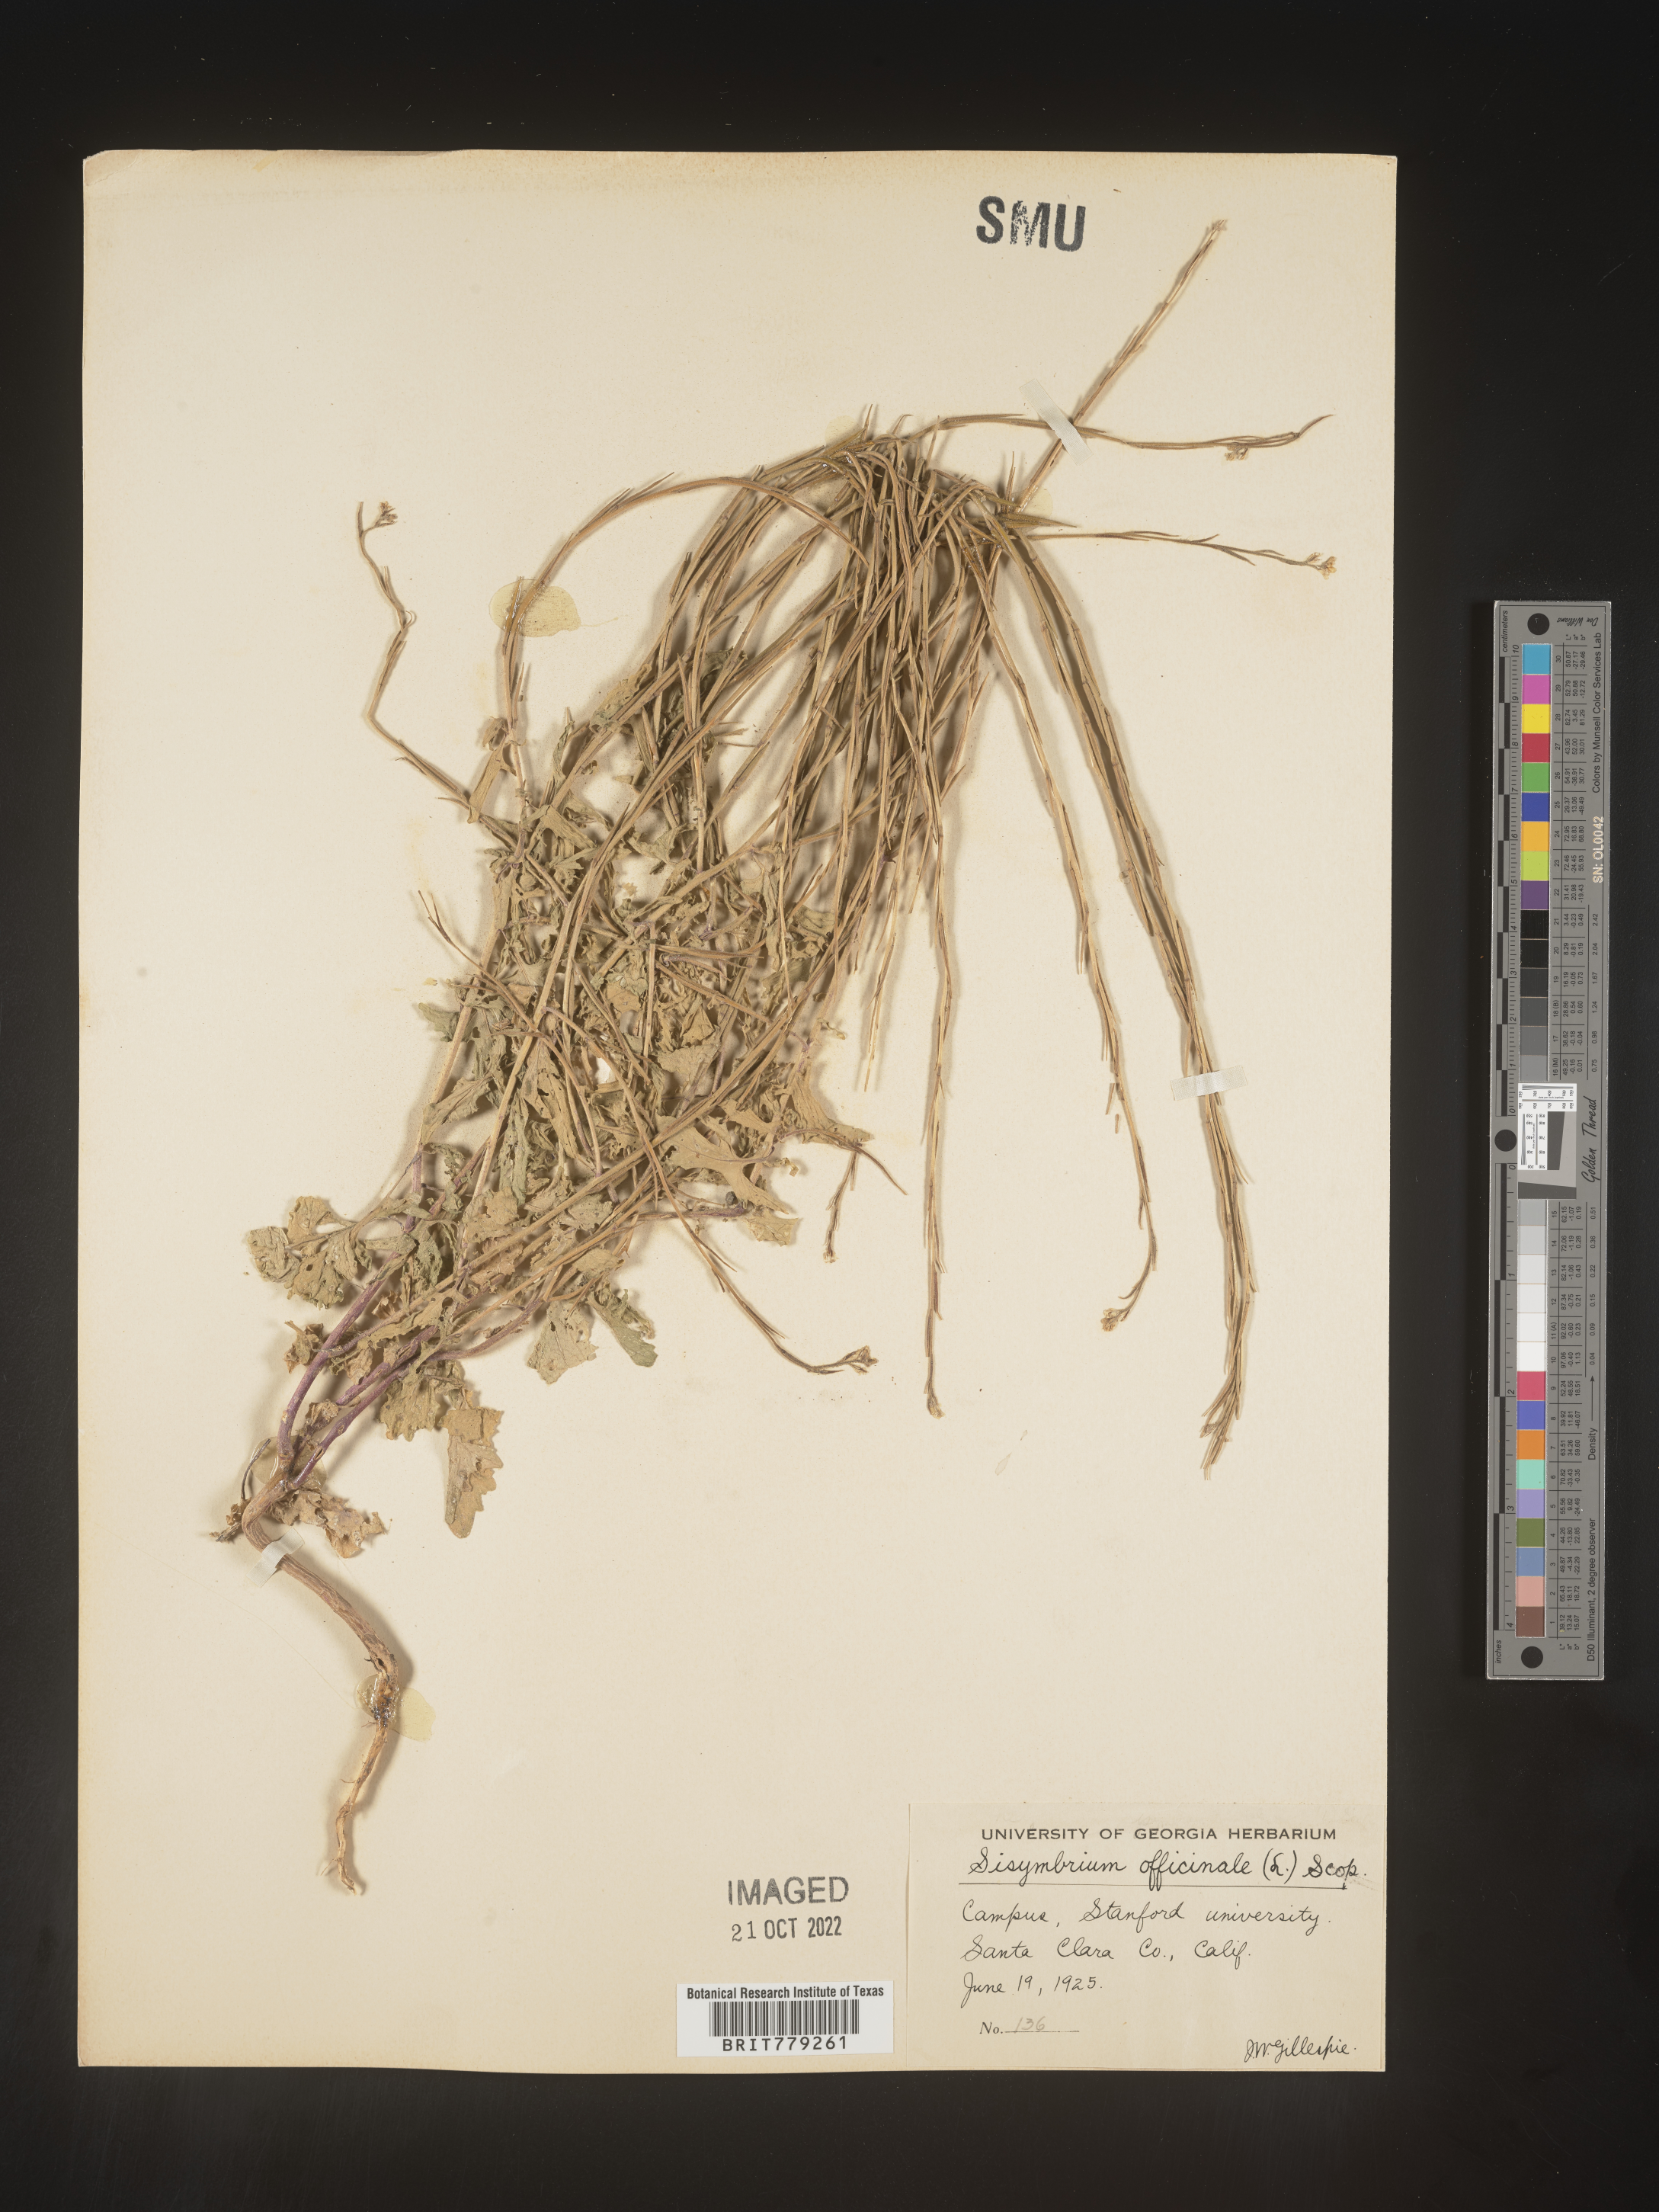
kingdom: Plantae
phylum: Tracheophyta
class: Magnoliopsida
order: Brassicales
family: Brassicaceae
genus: Sisymbrium
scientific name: Sisymbrium officinale
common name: Hedge mustard
